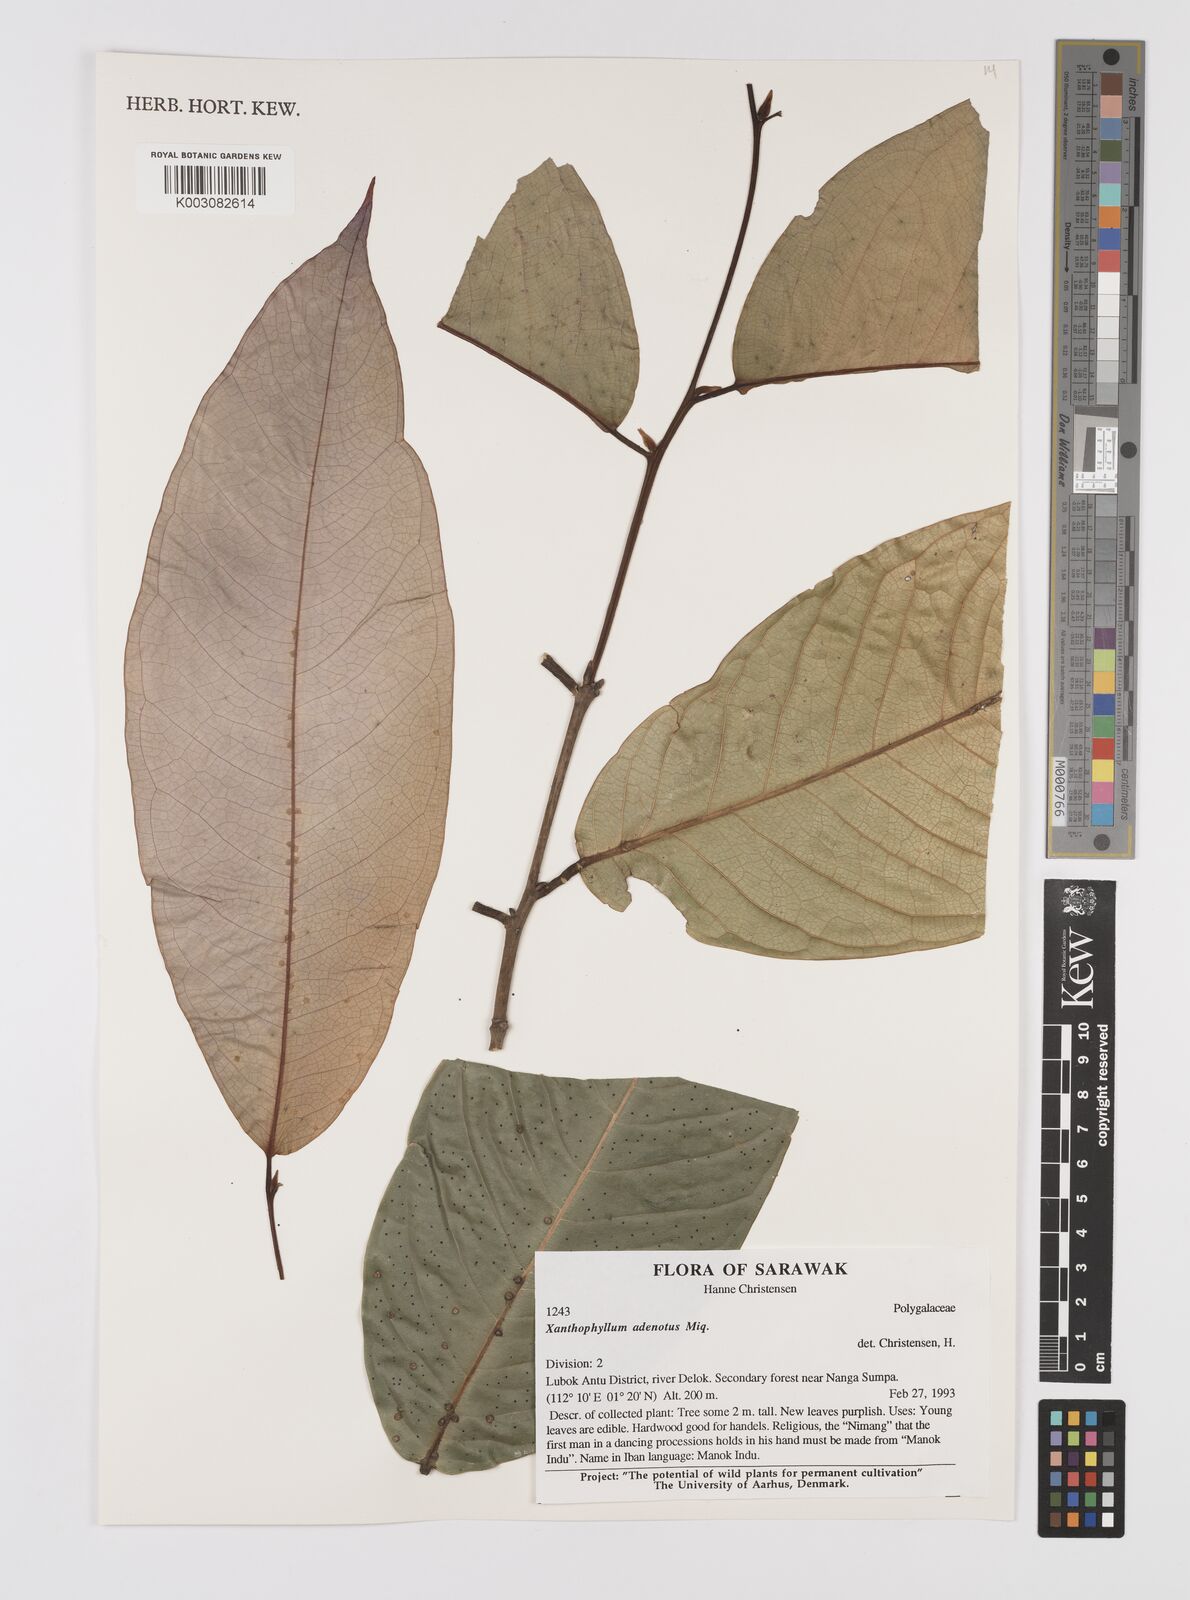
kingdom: Plantae
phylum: Tracheophyta
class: Magnoliopsida
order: Fabales
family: Polygalaceae
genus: Xanthophyllum
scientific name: Xanthophyllum adenotus
